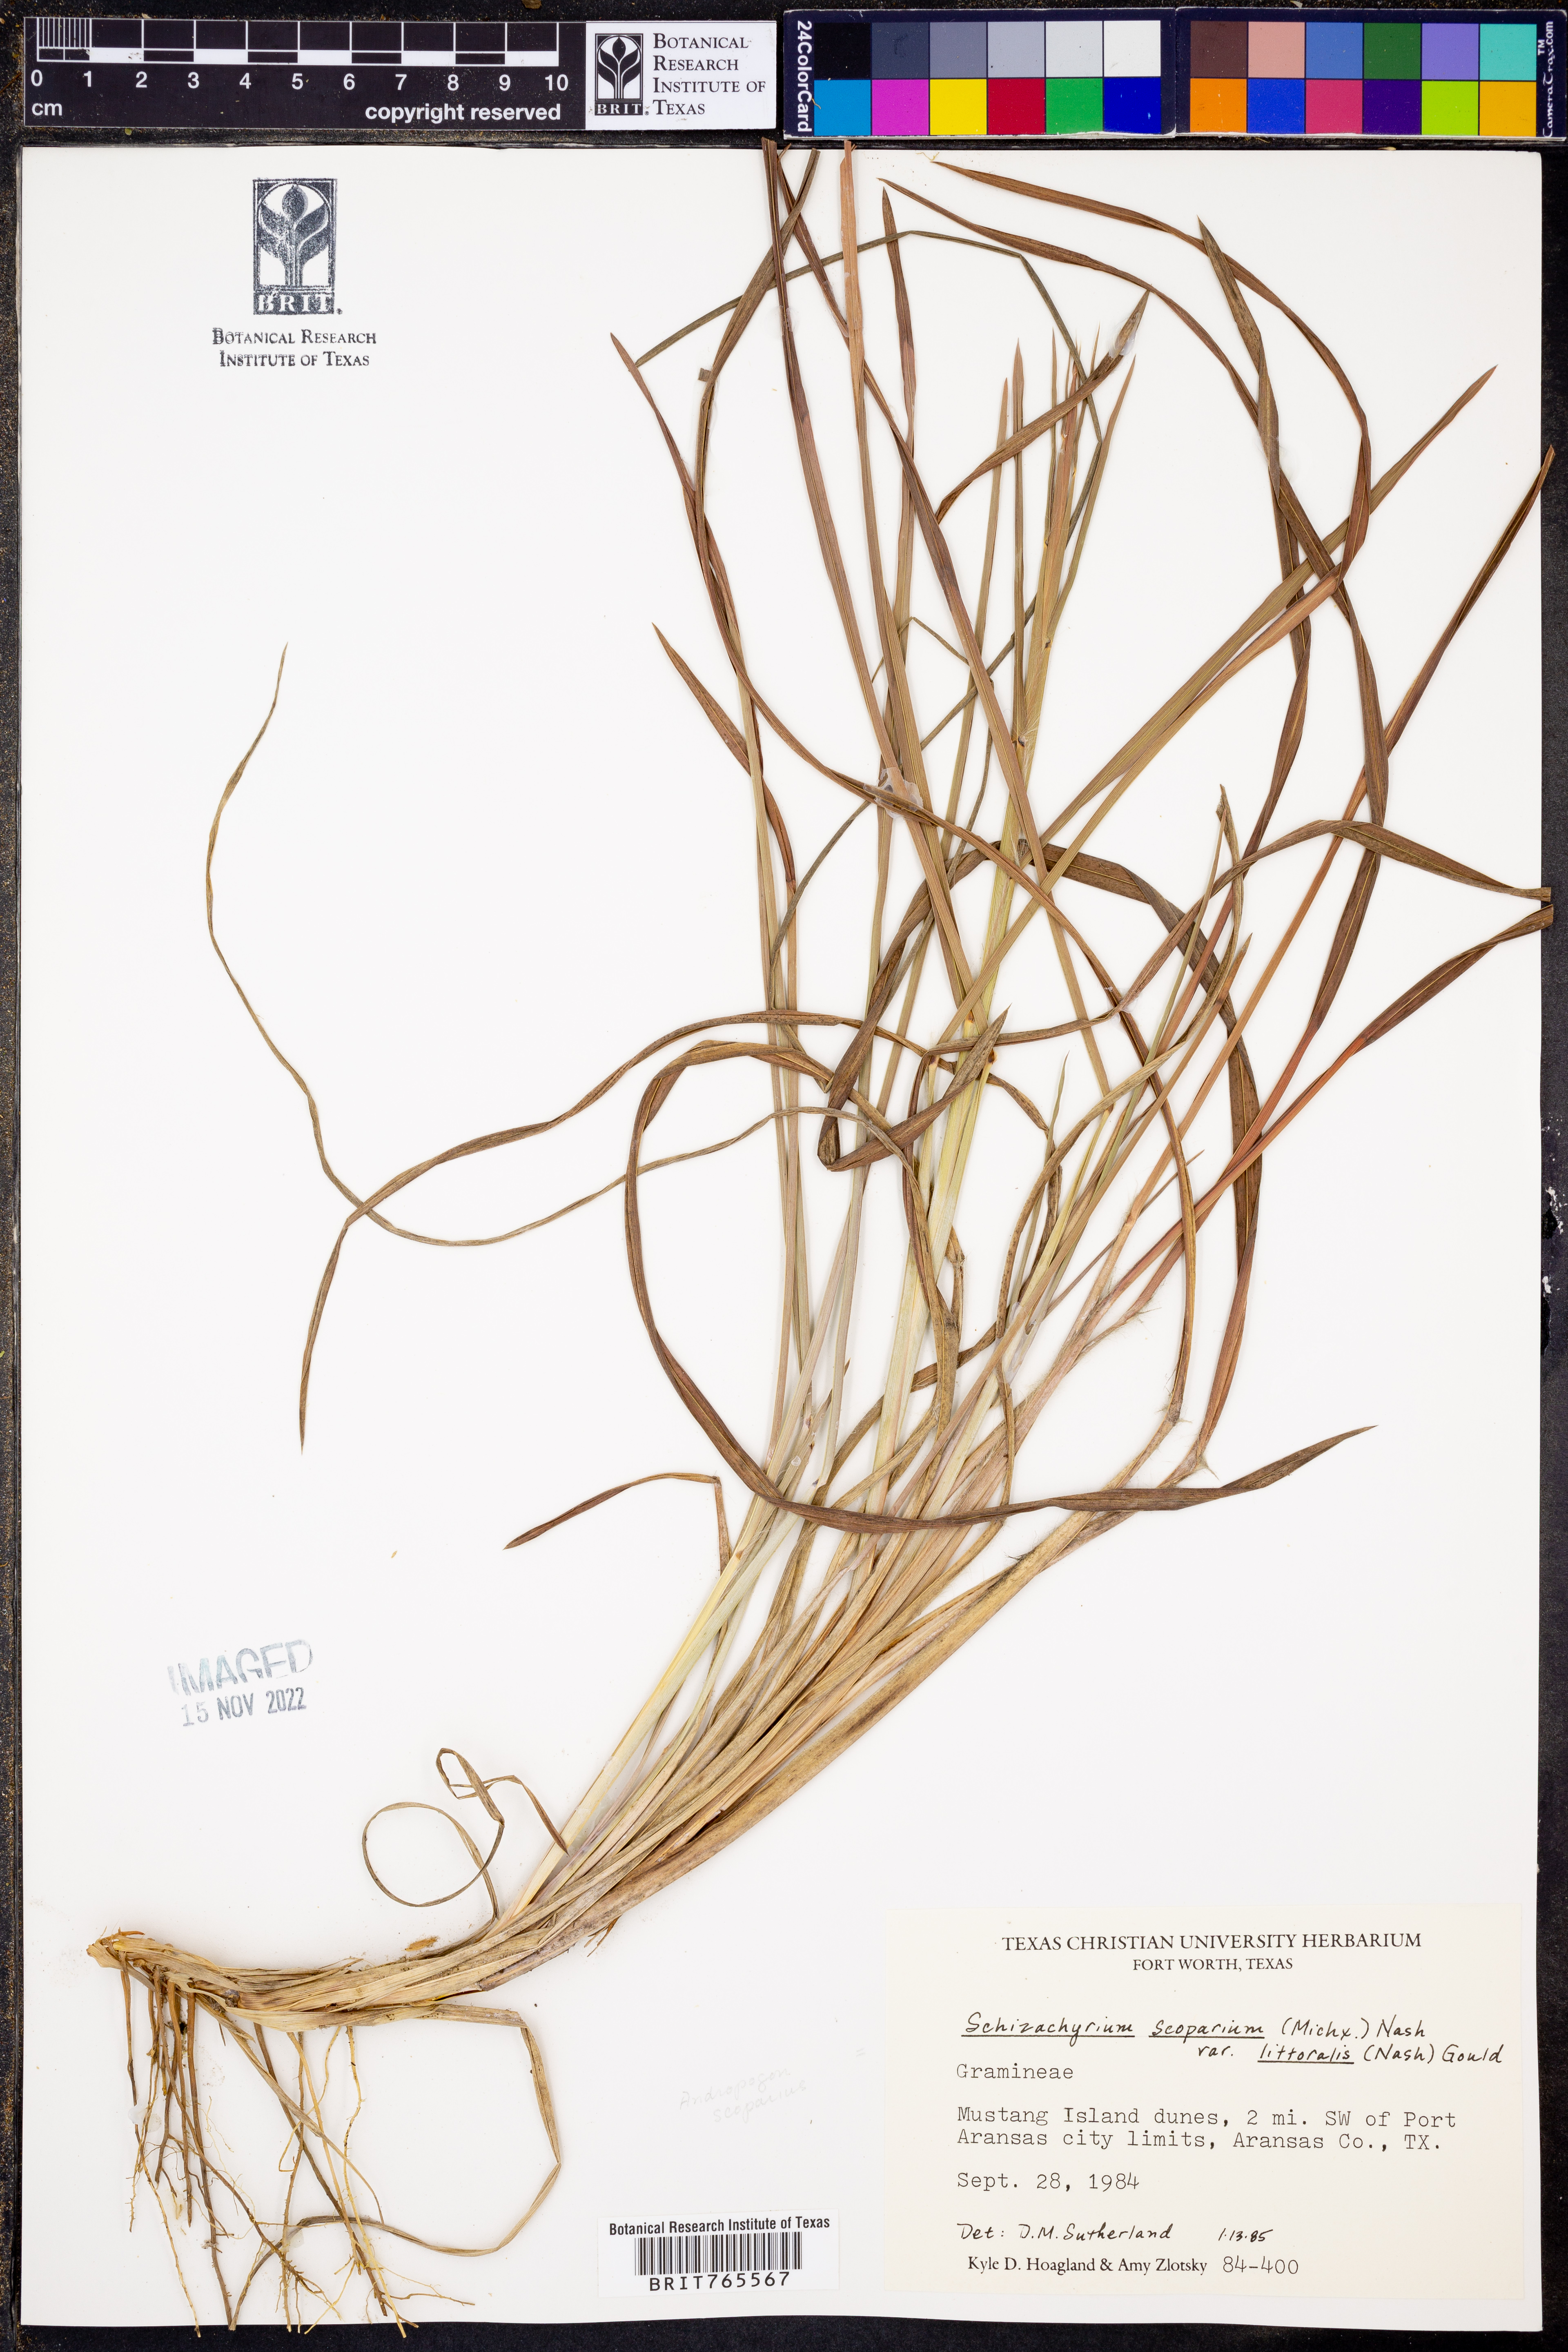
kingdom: Plantae
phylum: Tracheophyta
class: Liliopsida
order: Poales
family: Poaceae
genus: Schizachyrium
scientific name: Schizachyrium scoparium
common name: Little bluestem
